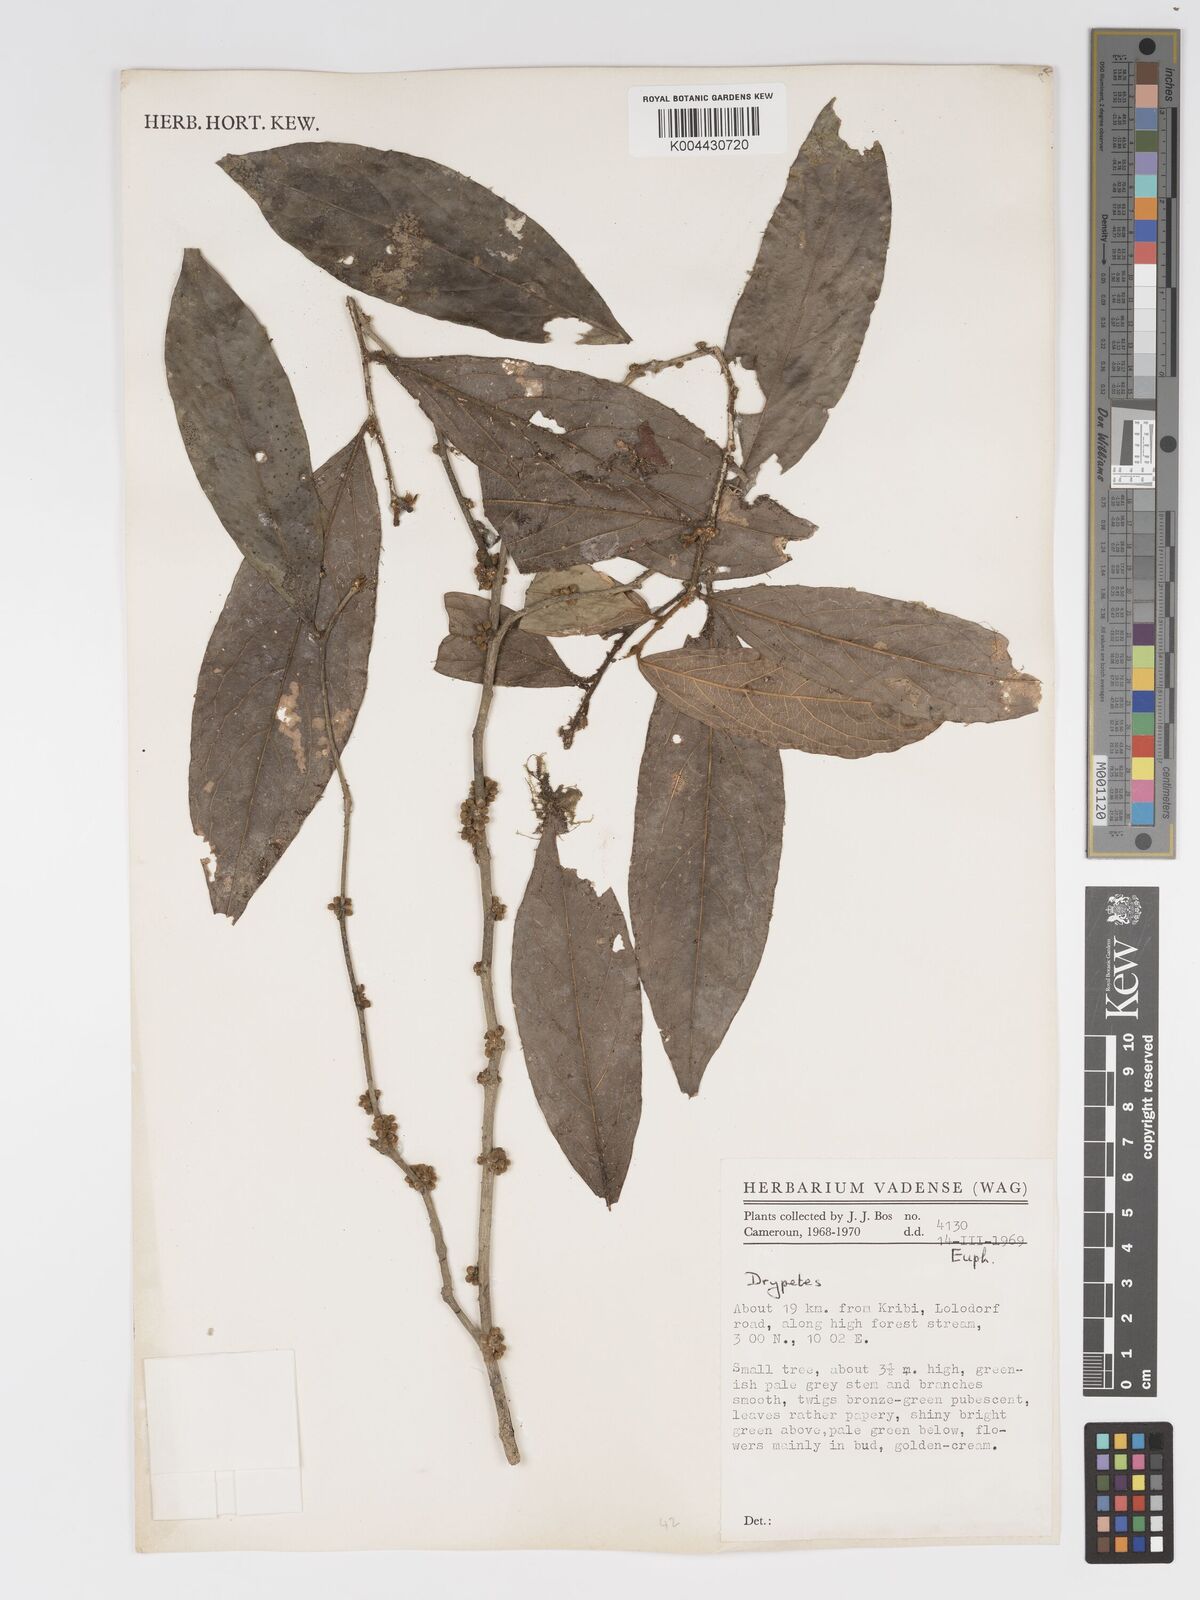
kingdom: Plantae
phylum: Tracheophyta
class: Magnoliopsida
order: Malpighiales
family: Putranjivaceae
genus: Drypetes
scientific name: Drypetes laciniata
